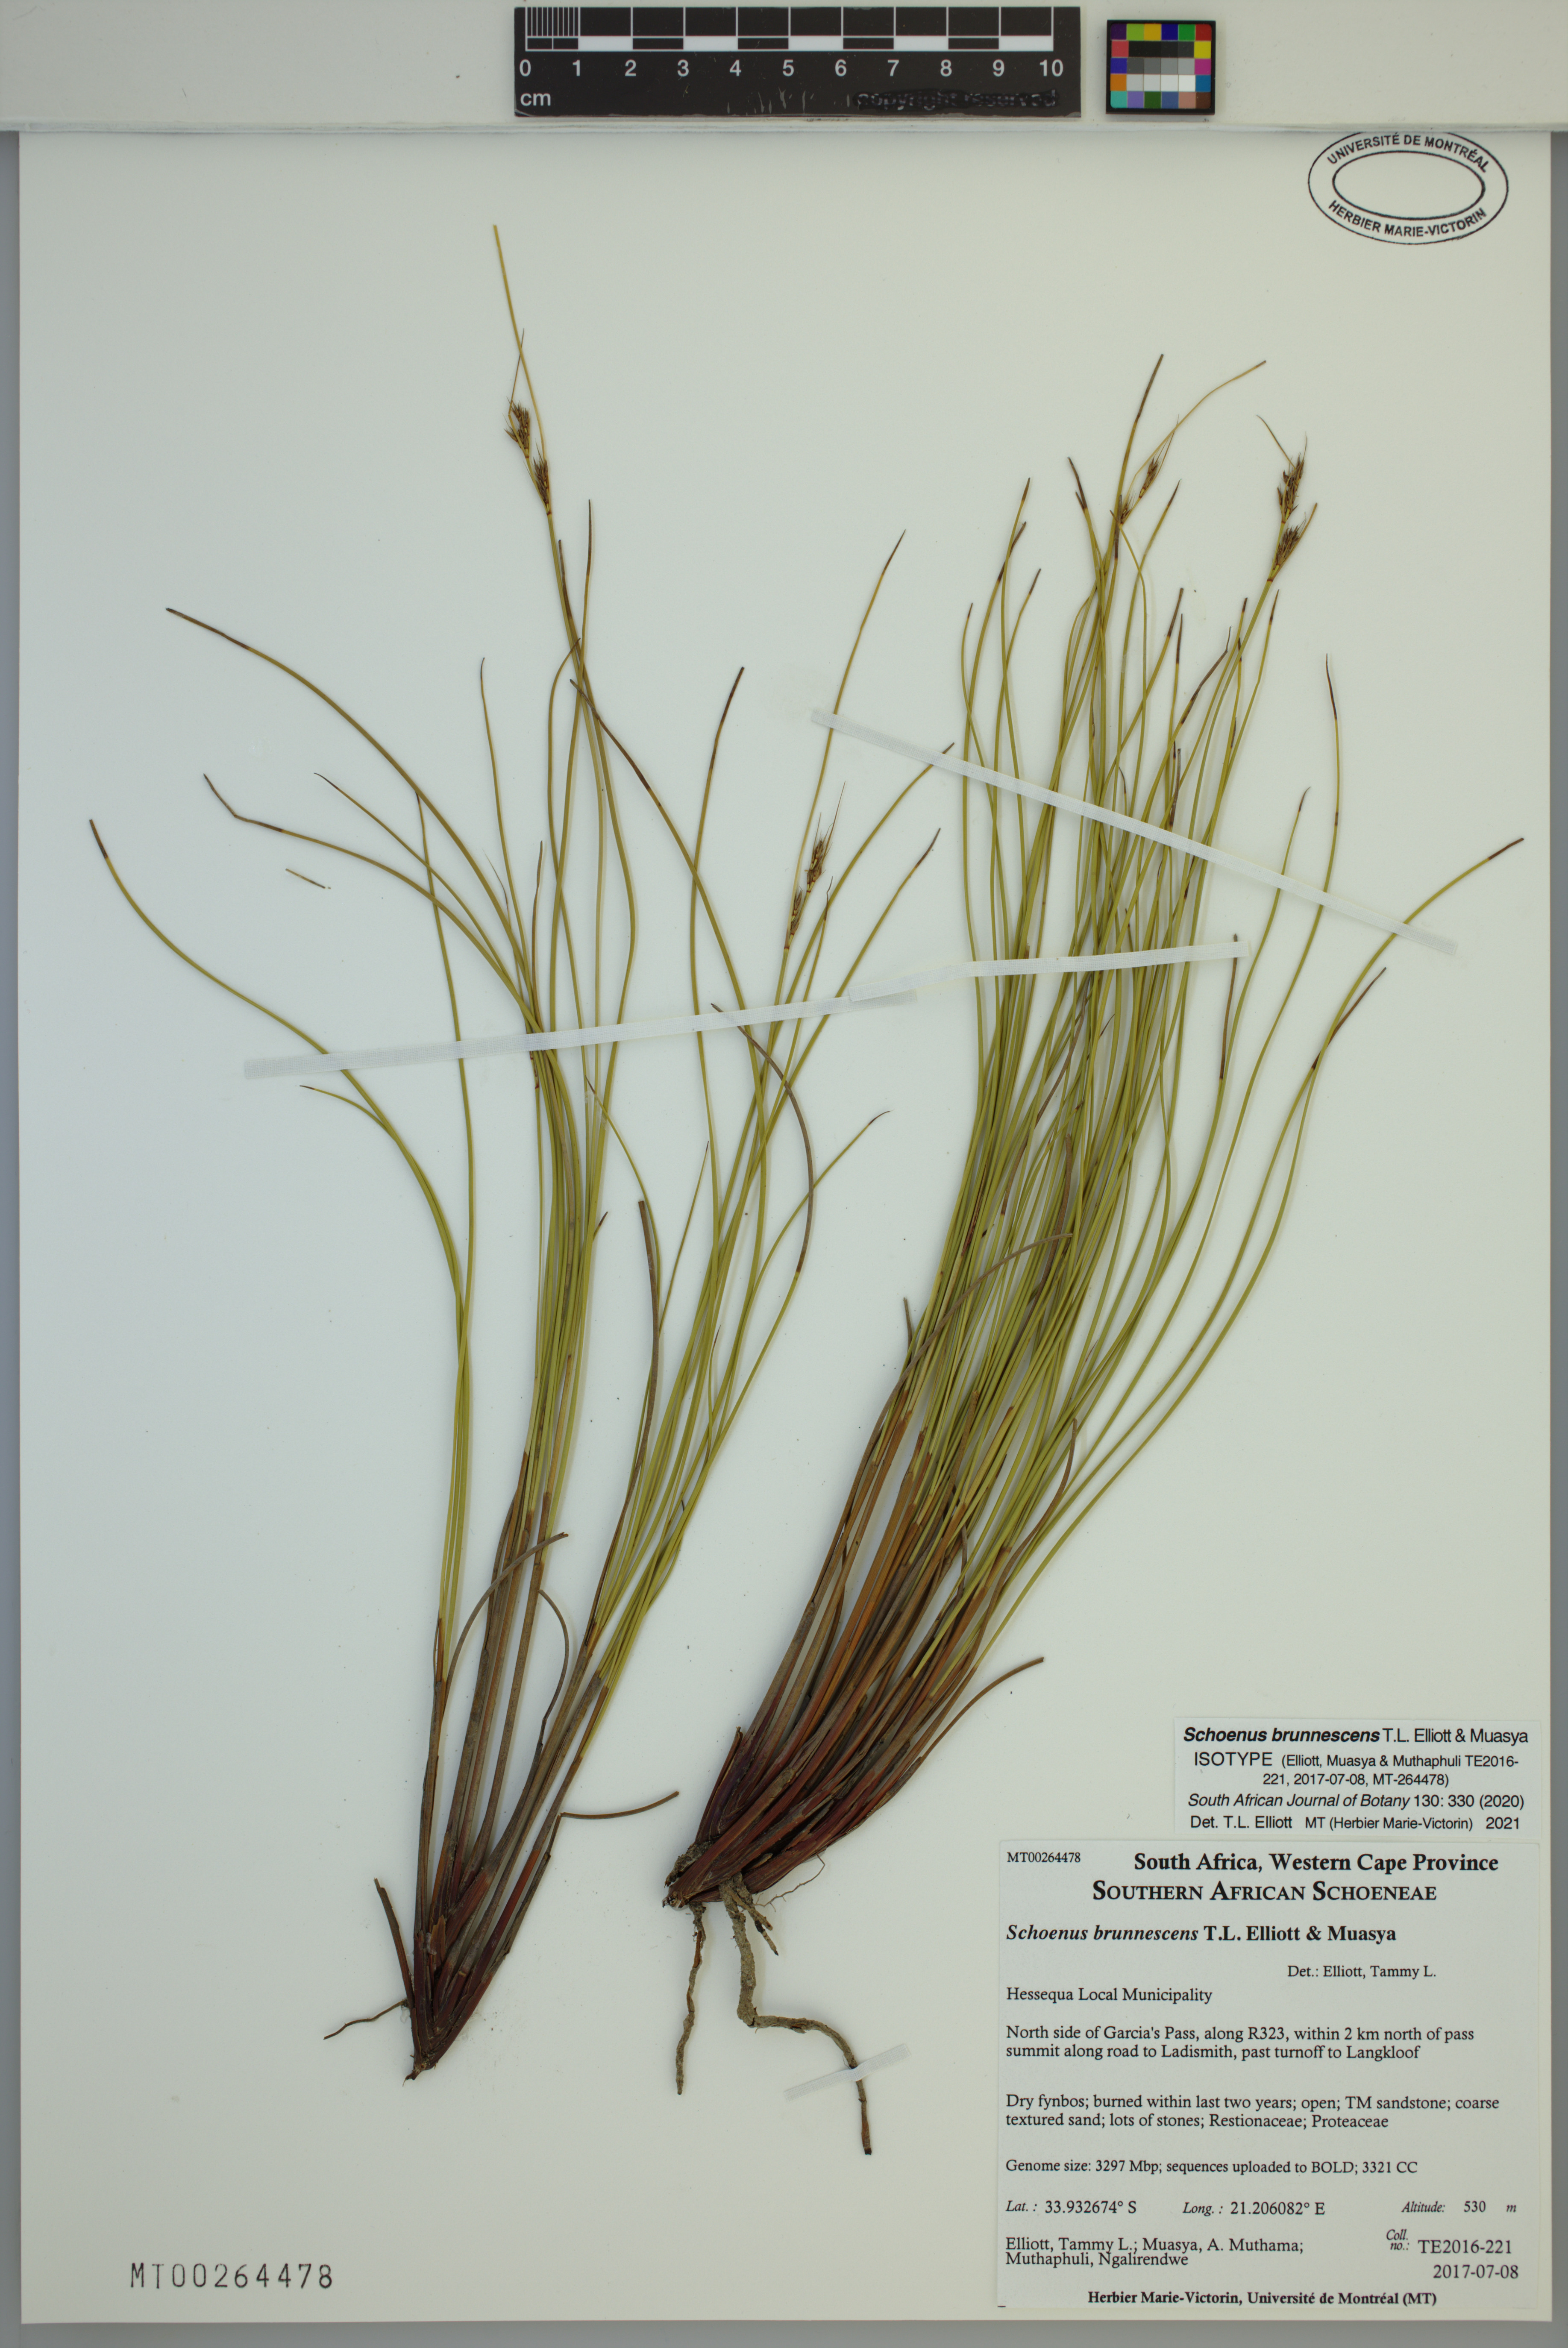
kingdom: Plantae
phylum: Tracheophyta
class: Liliopsida
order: Poales
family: Cyperaceae
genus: Schoenus
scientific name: Schoenus brunnescens
